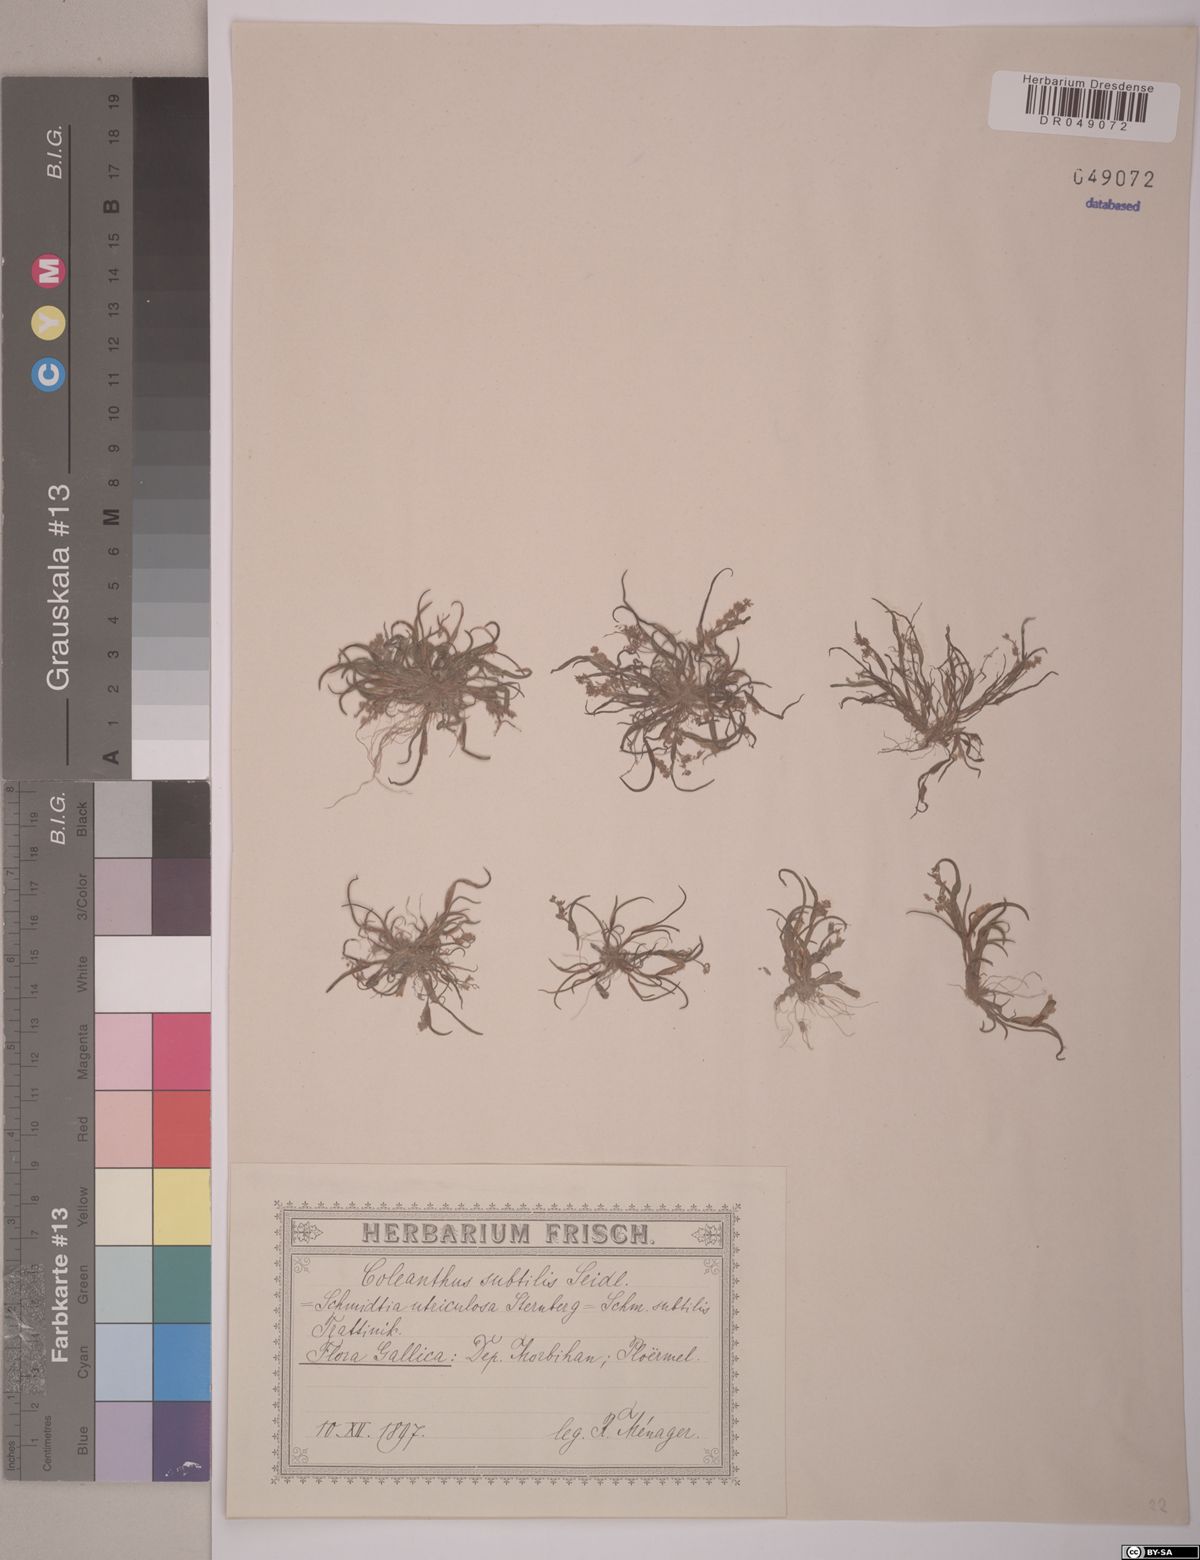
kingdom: Plantae
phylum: Tracheophyta
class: Liliopsida
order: Poales
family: Poaceae
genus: Coleanthus
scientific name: Coleanthus subtilis
